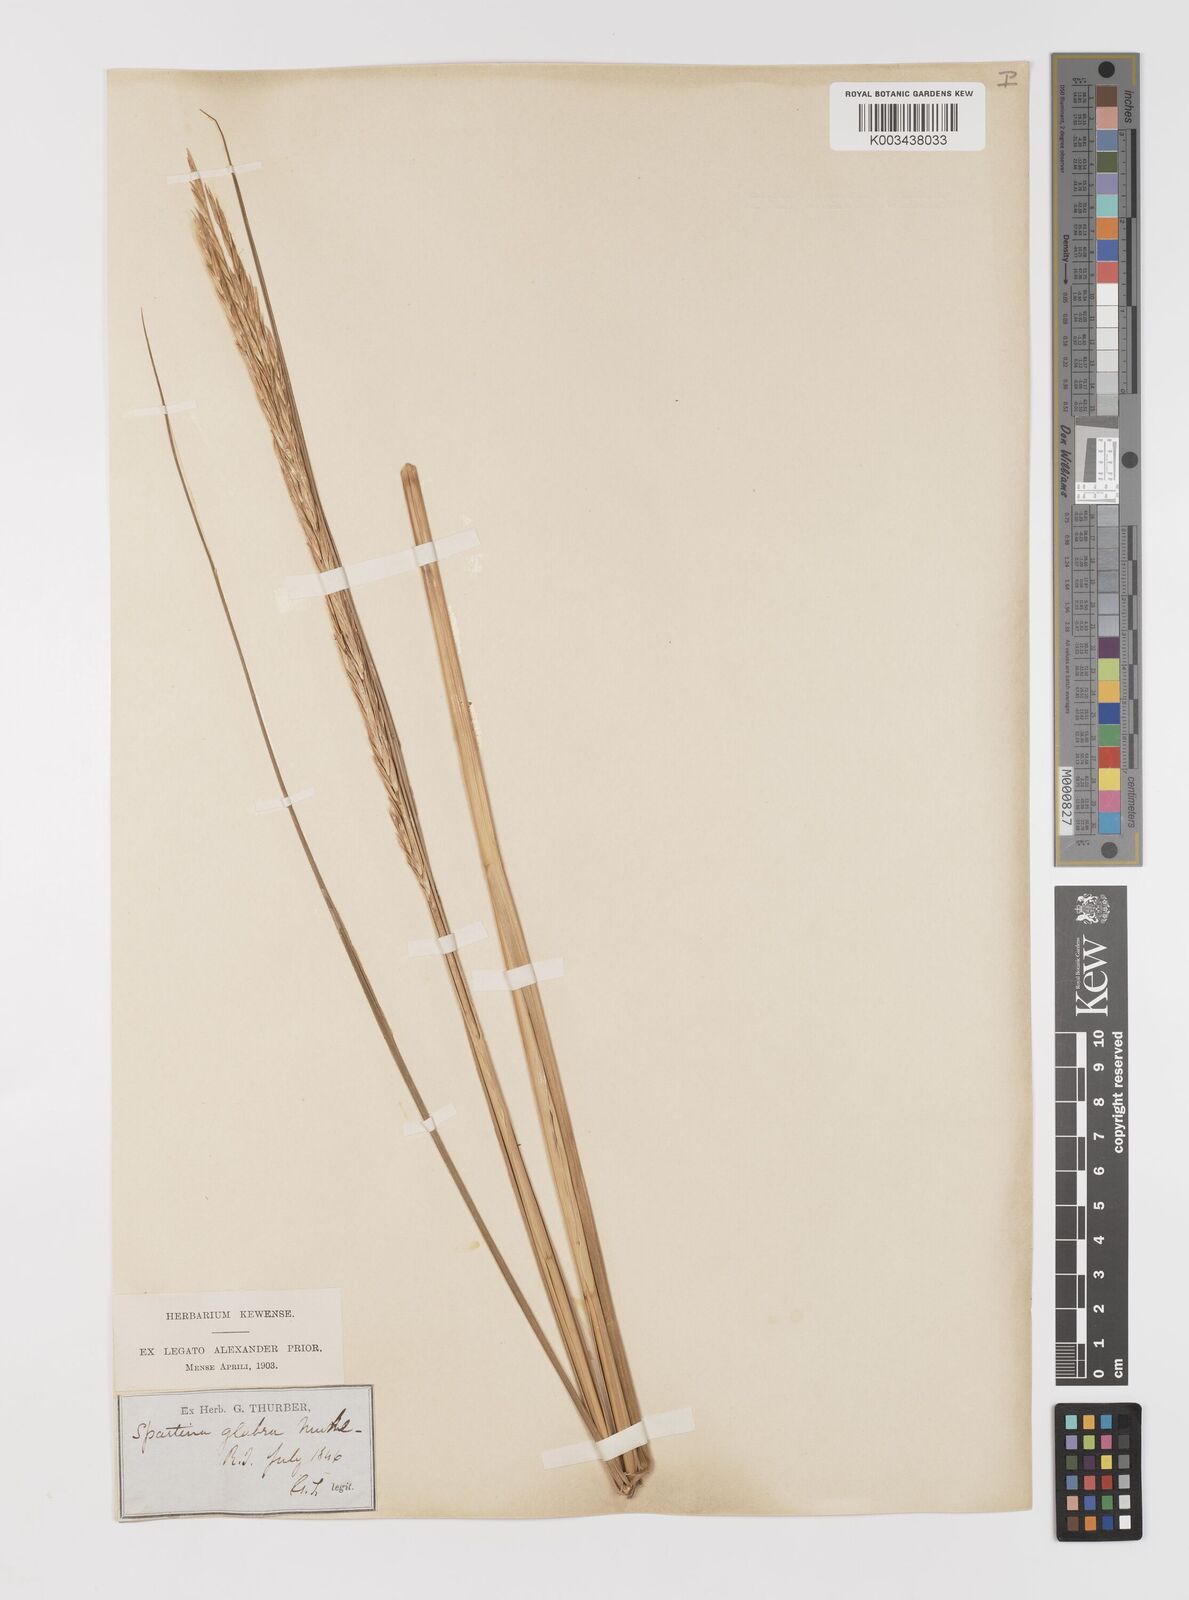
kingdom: Plantae
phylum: Tracheophyta
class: Liliopsida
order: Poales
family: Poaceae
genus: Sporobolus
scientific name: Sporobolus alterniflorus
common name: Atlantic cordgrass
